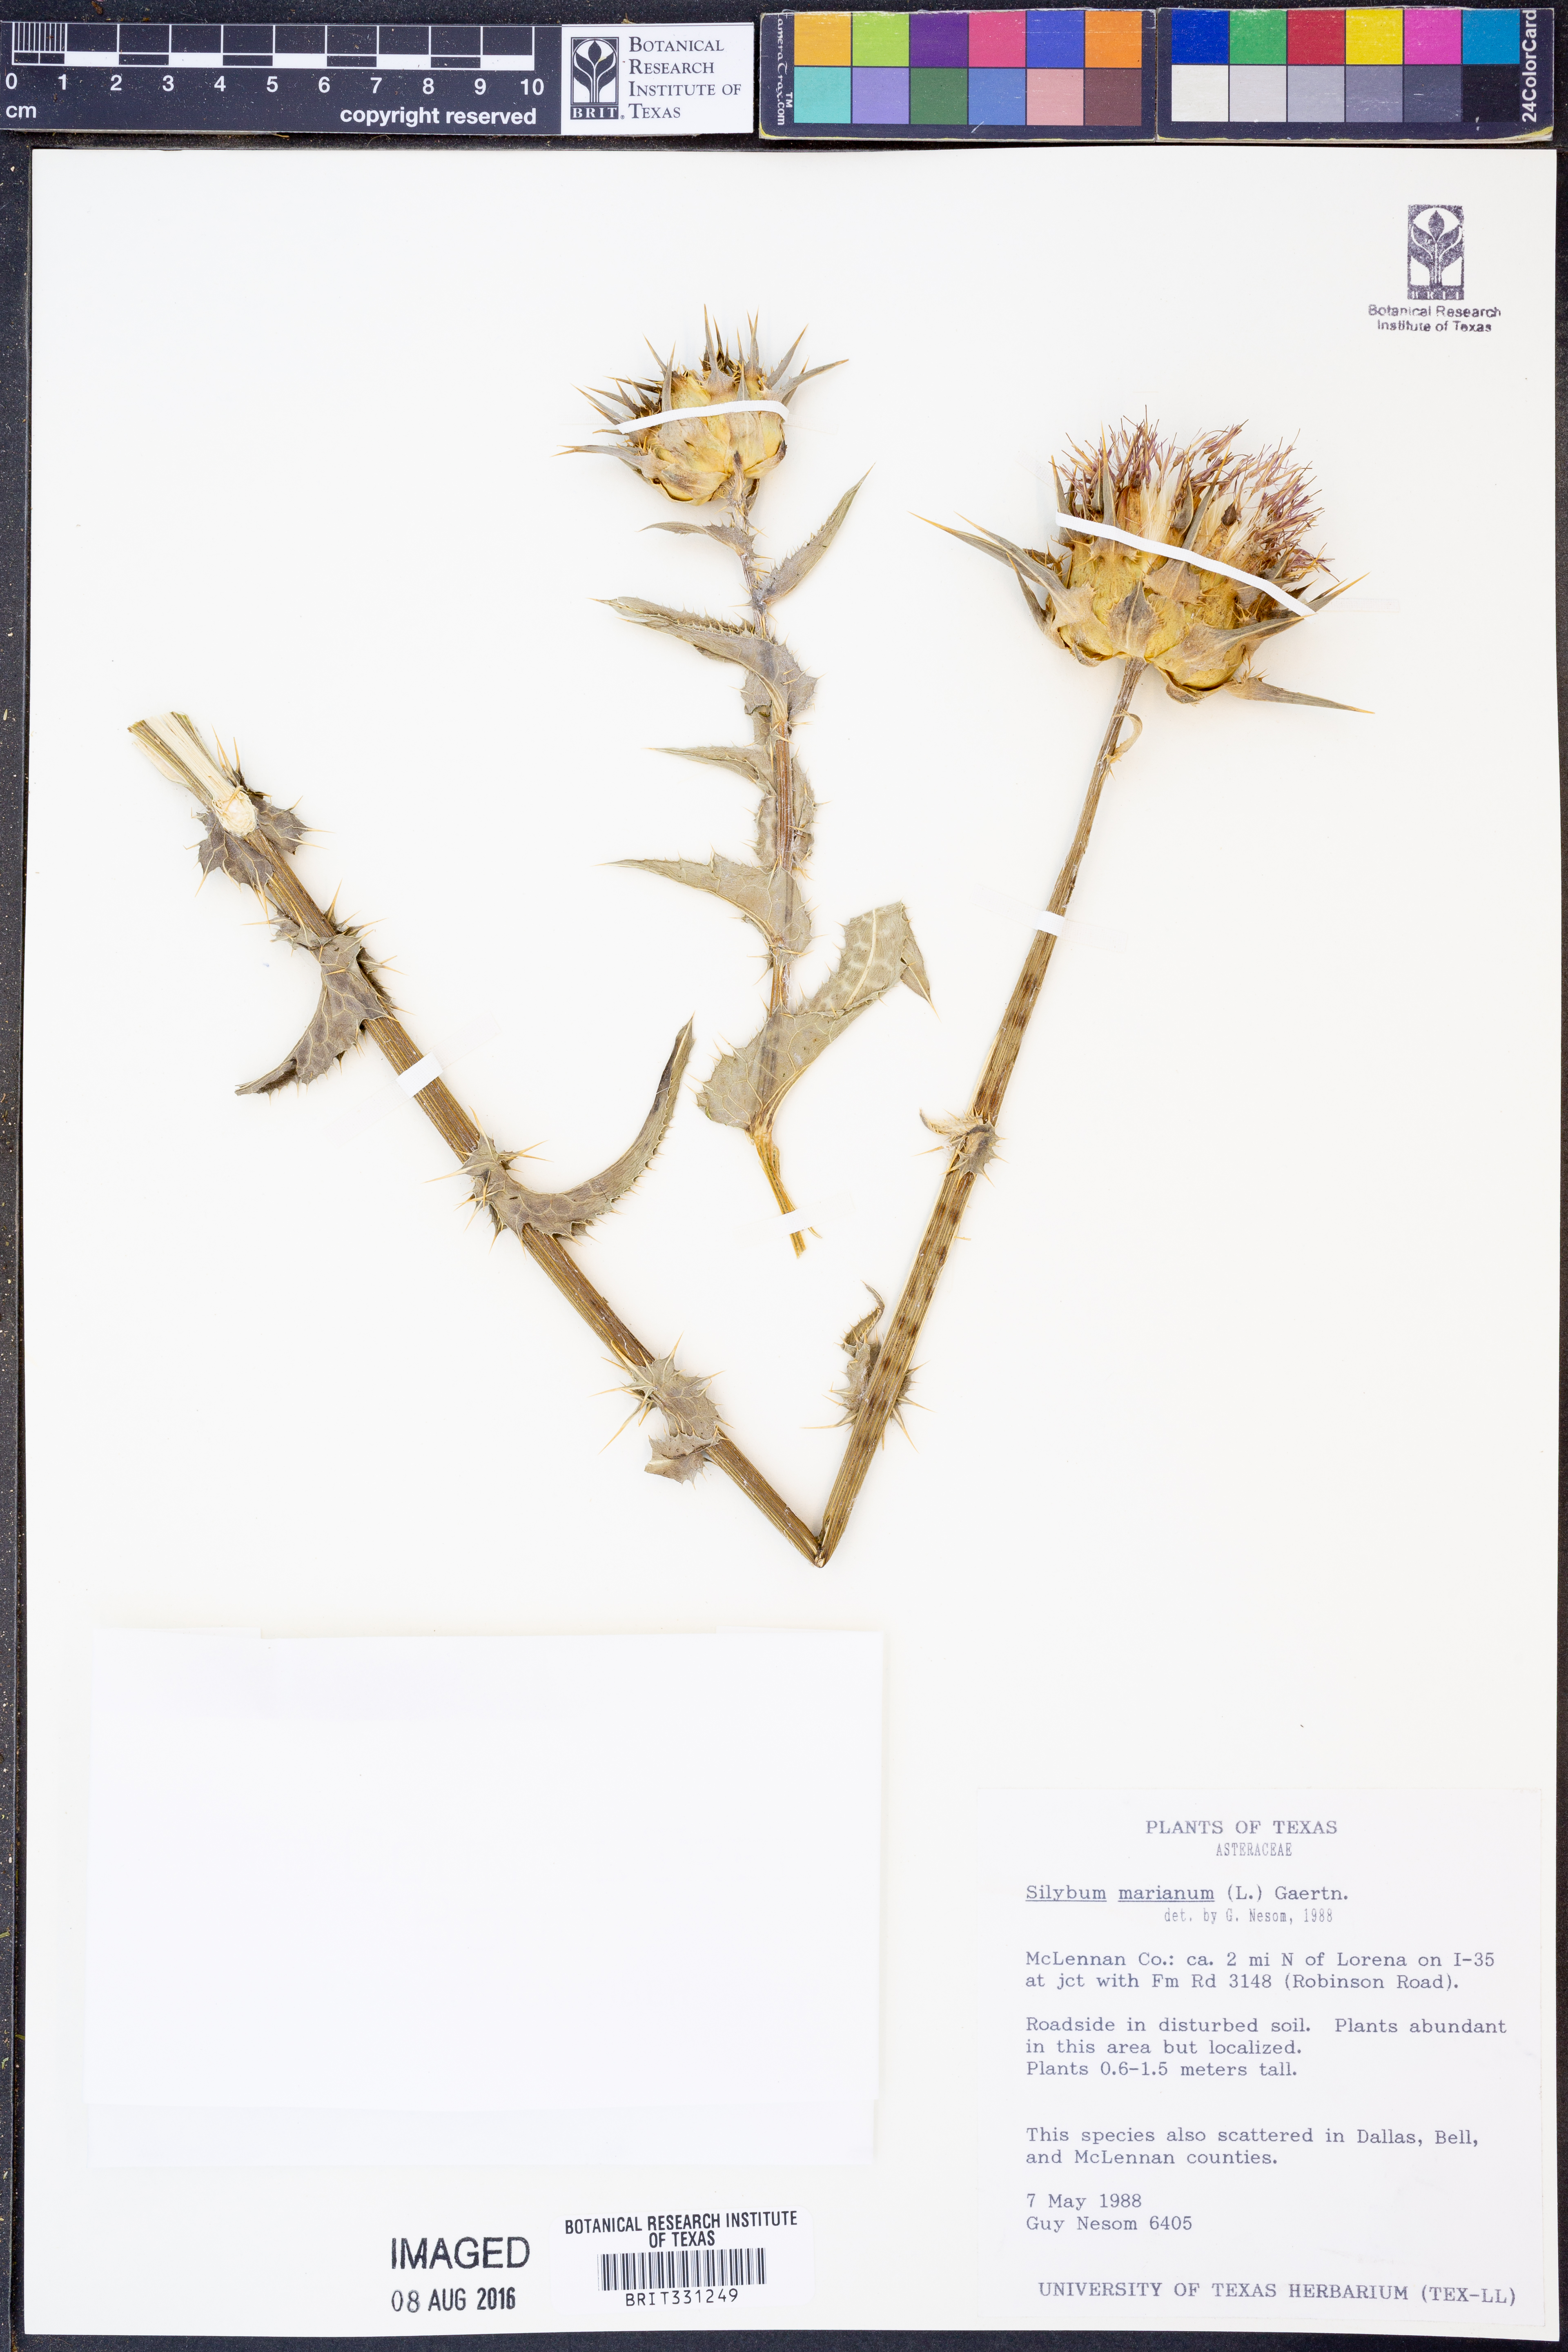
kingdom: Plantae
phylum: Tracheophyta
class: Magnoliopsida
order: Asterales
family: Asteraceae
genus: Silybum
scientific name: Silybum marianum
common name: Milk thistle
